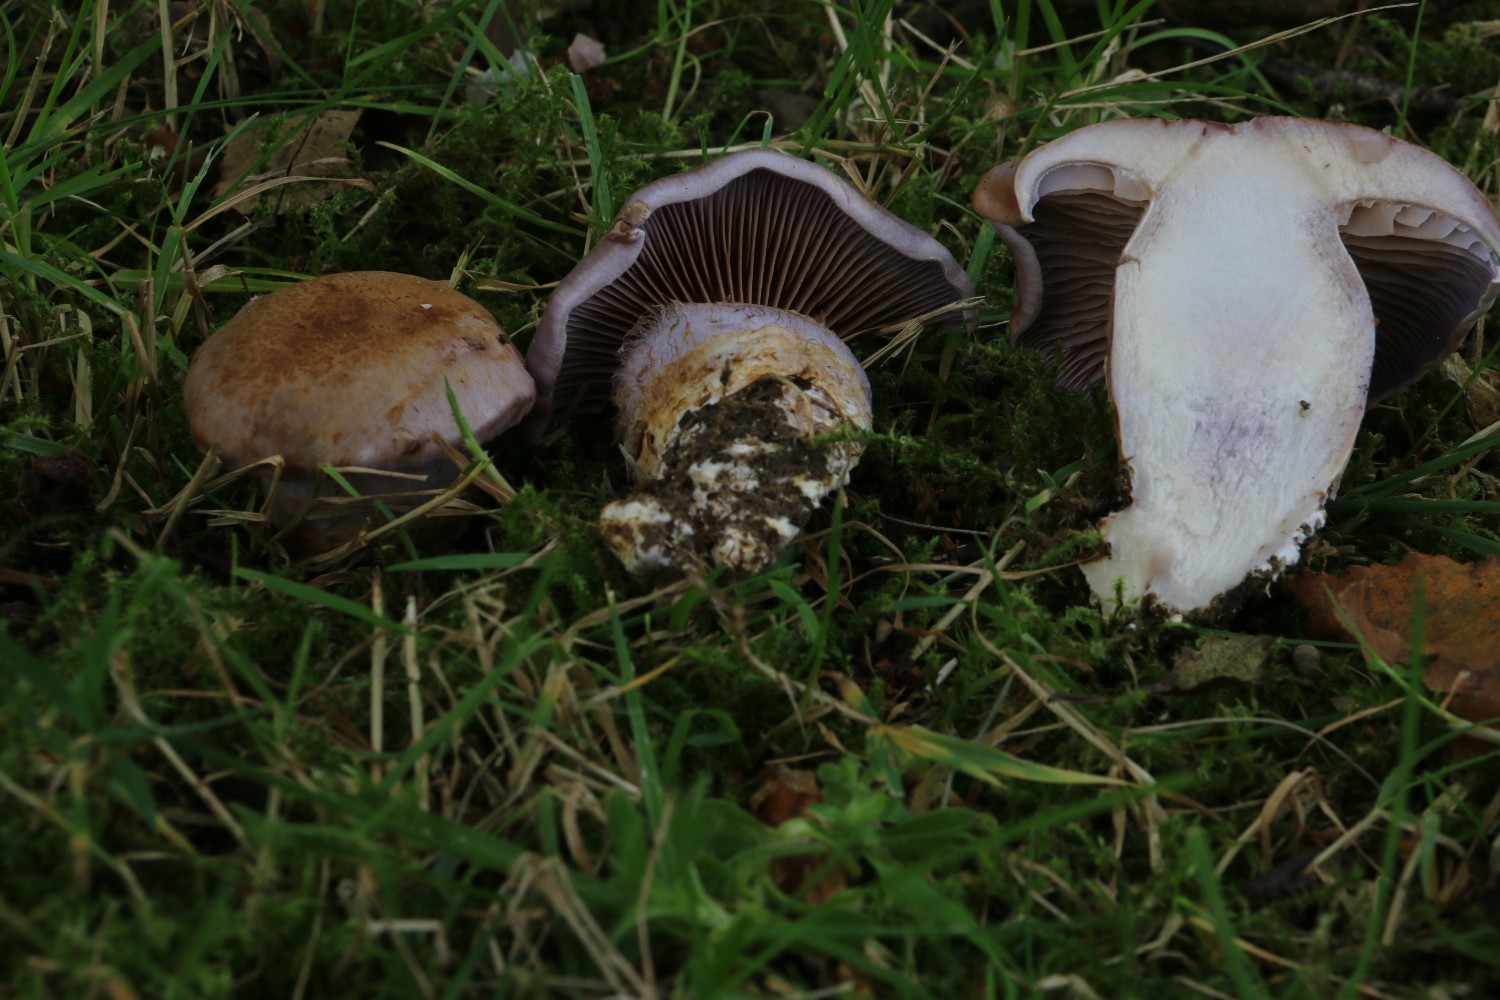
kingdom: Fungi
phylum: Basidiomycota
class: Agaricomycetes
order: Agaricales
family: Cortinariaceae
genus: Phlegmacium
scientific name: Phlegmacium balteatocumatile
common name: violettrådet slørhat
